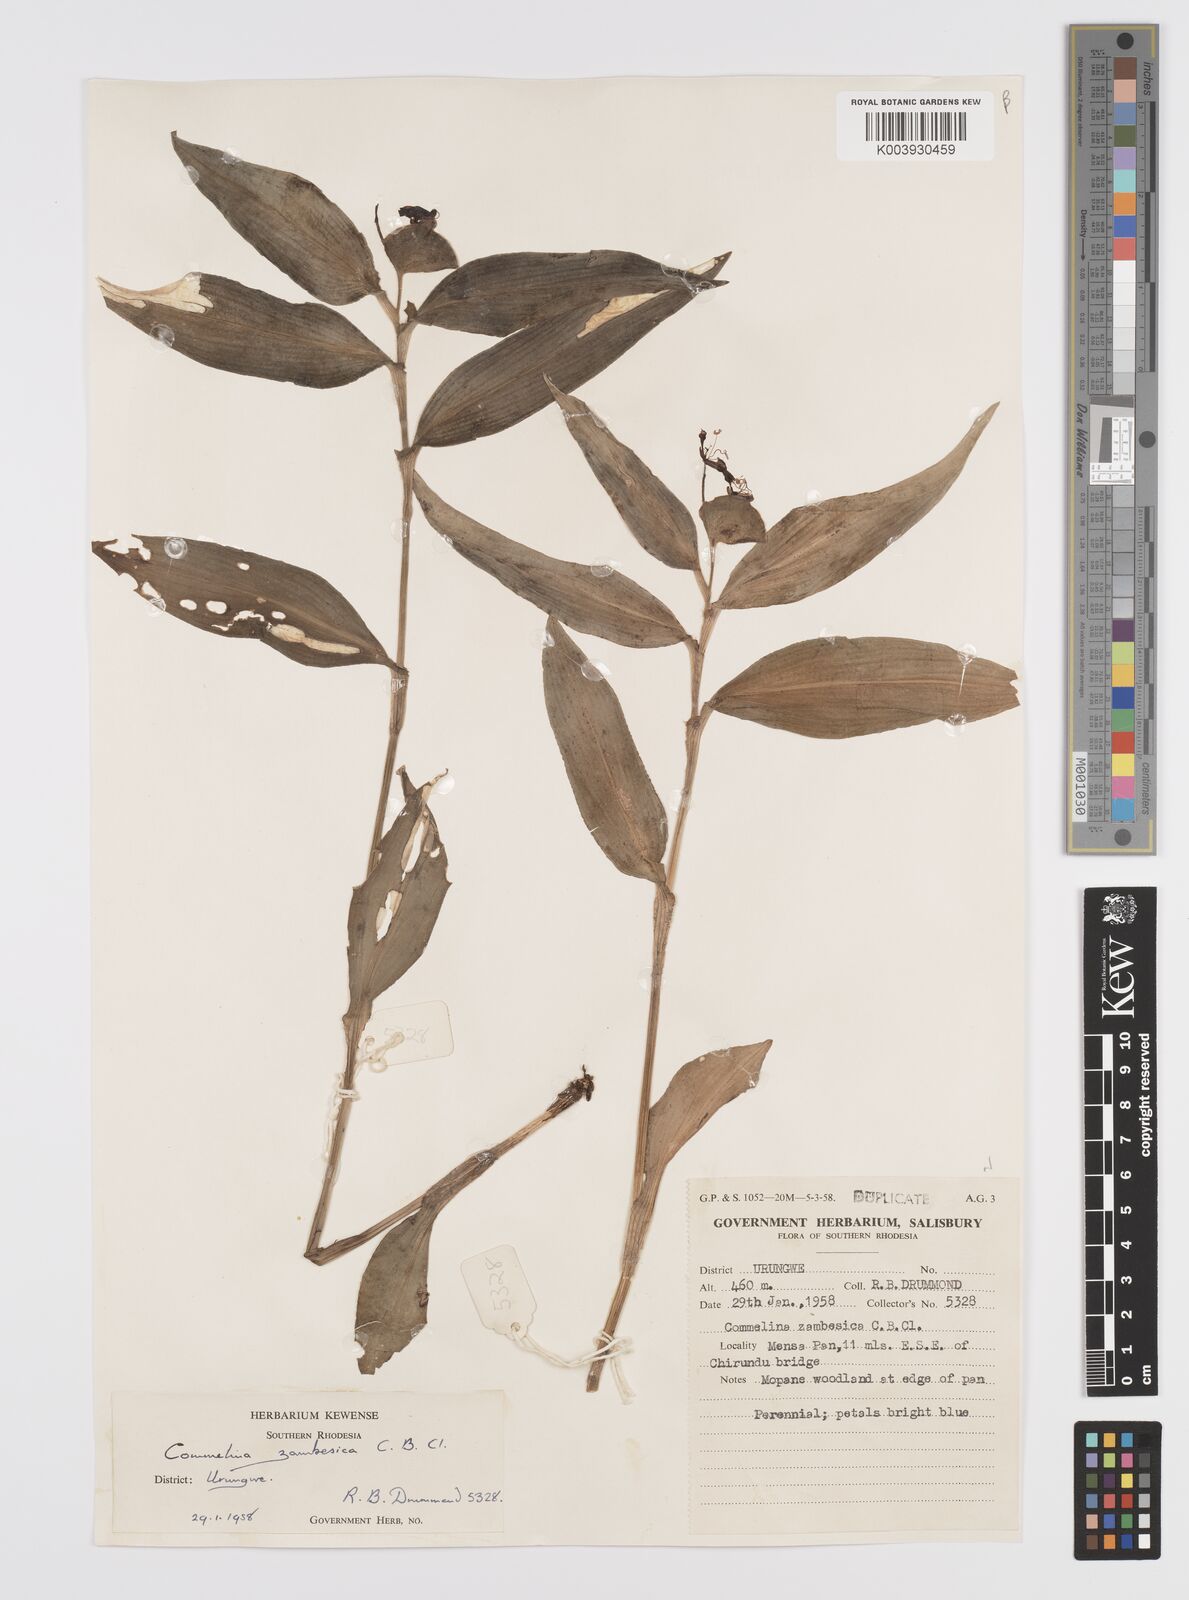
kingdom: Plantae
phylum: Tracheophyta
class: Liliopsida
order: Commelinales
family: Commelinaceae
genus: Commelina
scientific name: Commelina zambesica
